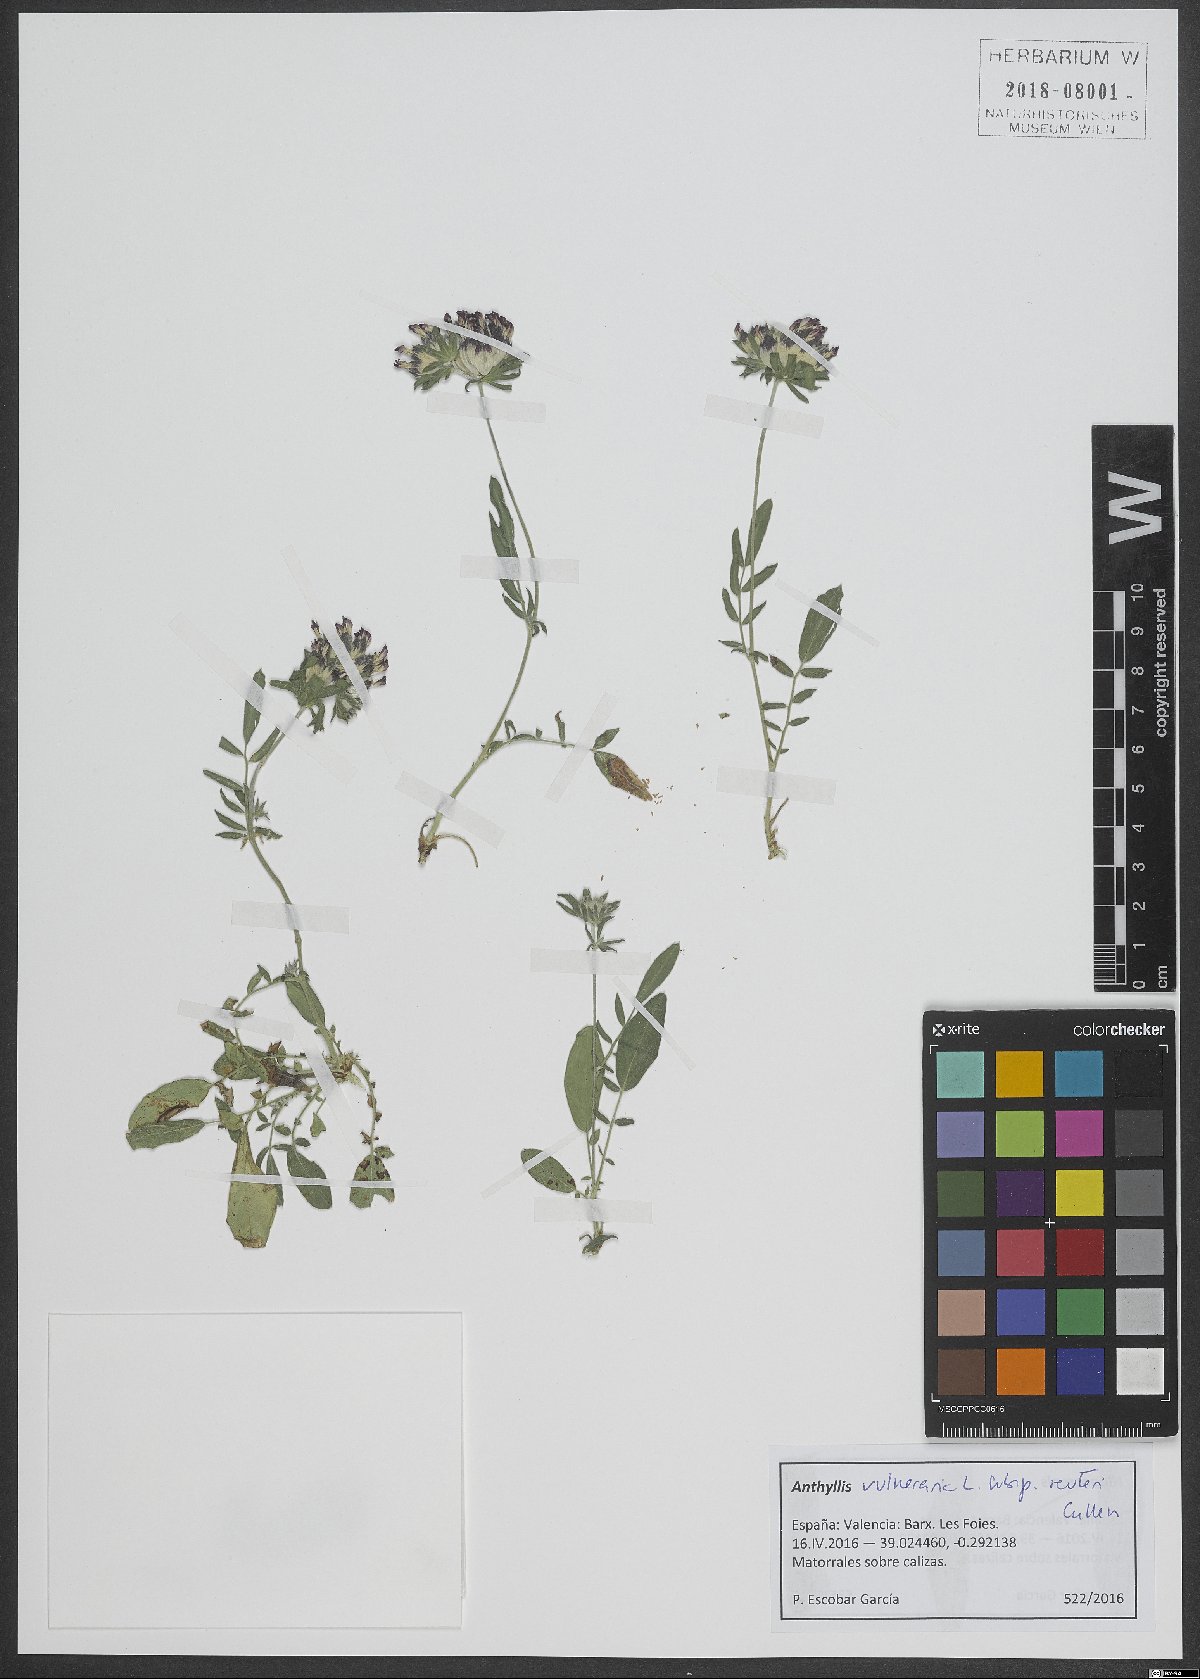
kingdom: Plantae
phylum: Tracheophyta
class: Magnoliopsida
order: Fabales
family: Fabaceae
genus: Anthyllis
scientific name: Anthyllis vulneraria
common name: Kidney vetch
